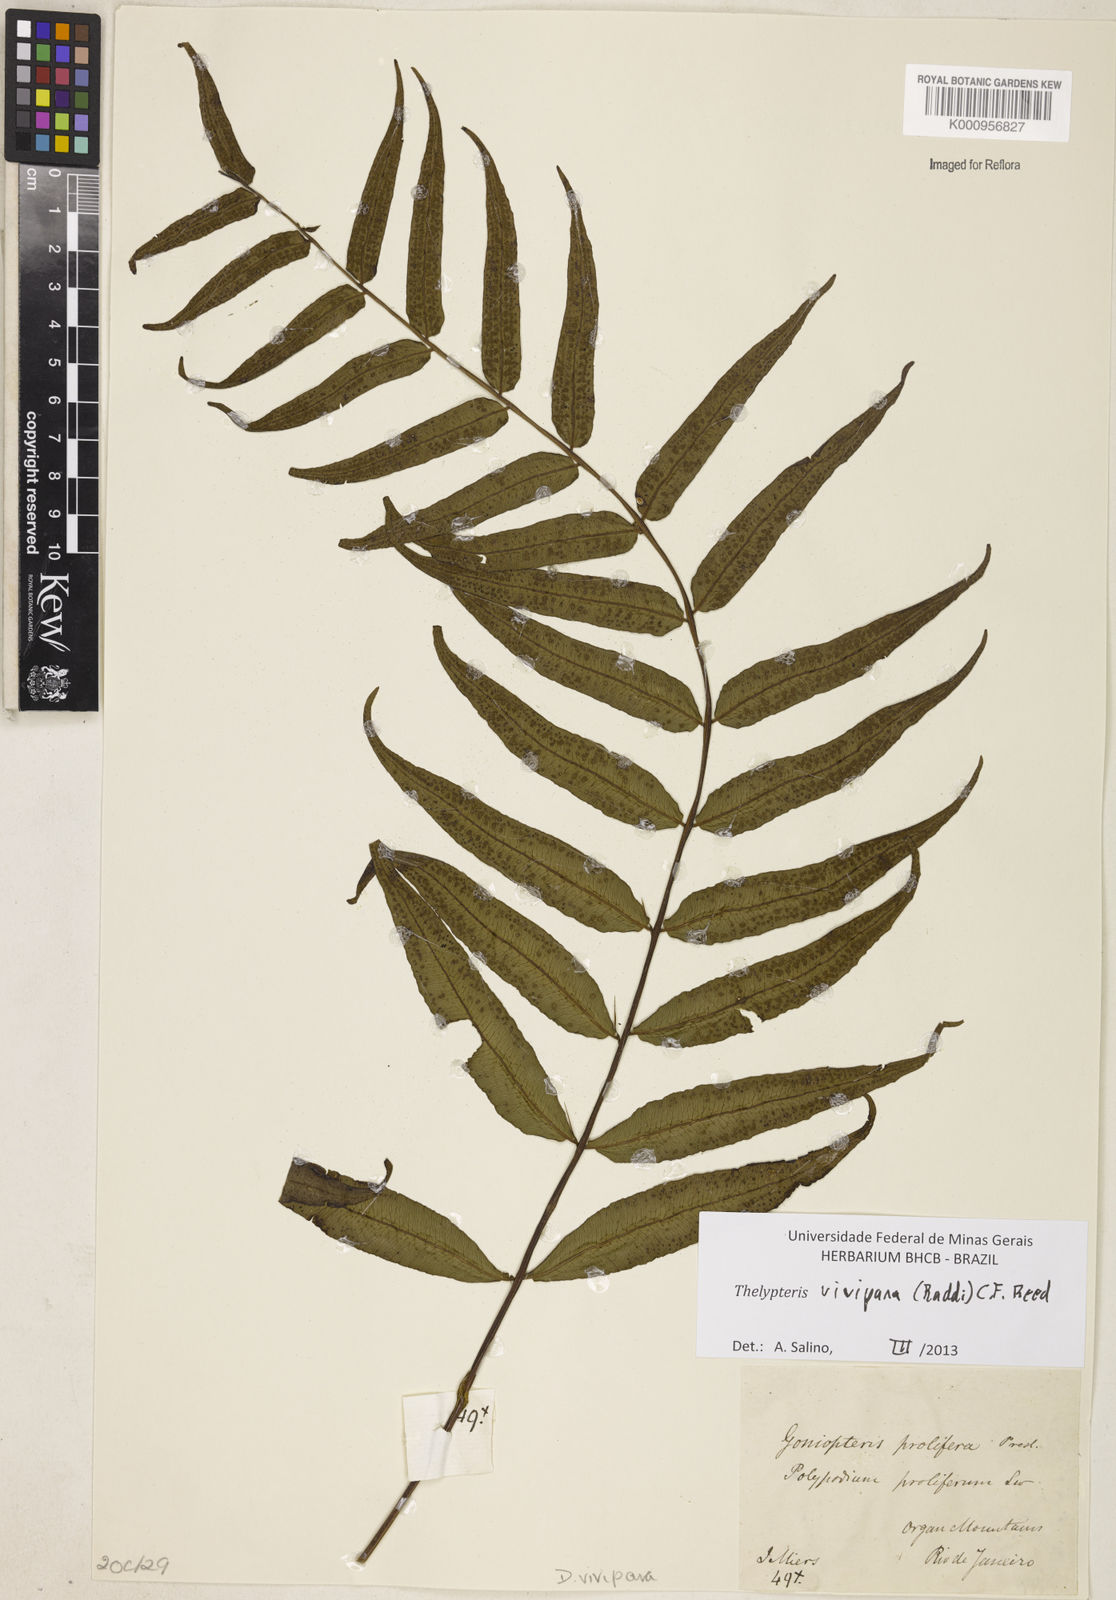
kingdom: Plantae
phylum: Tracheophyta
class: Polypodiopsida
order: Polypodiales
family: Thelypteridaceae
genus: Goniopteris
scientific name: Goniopteris vivipara
